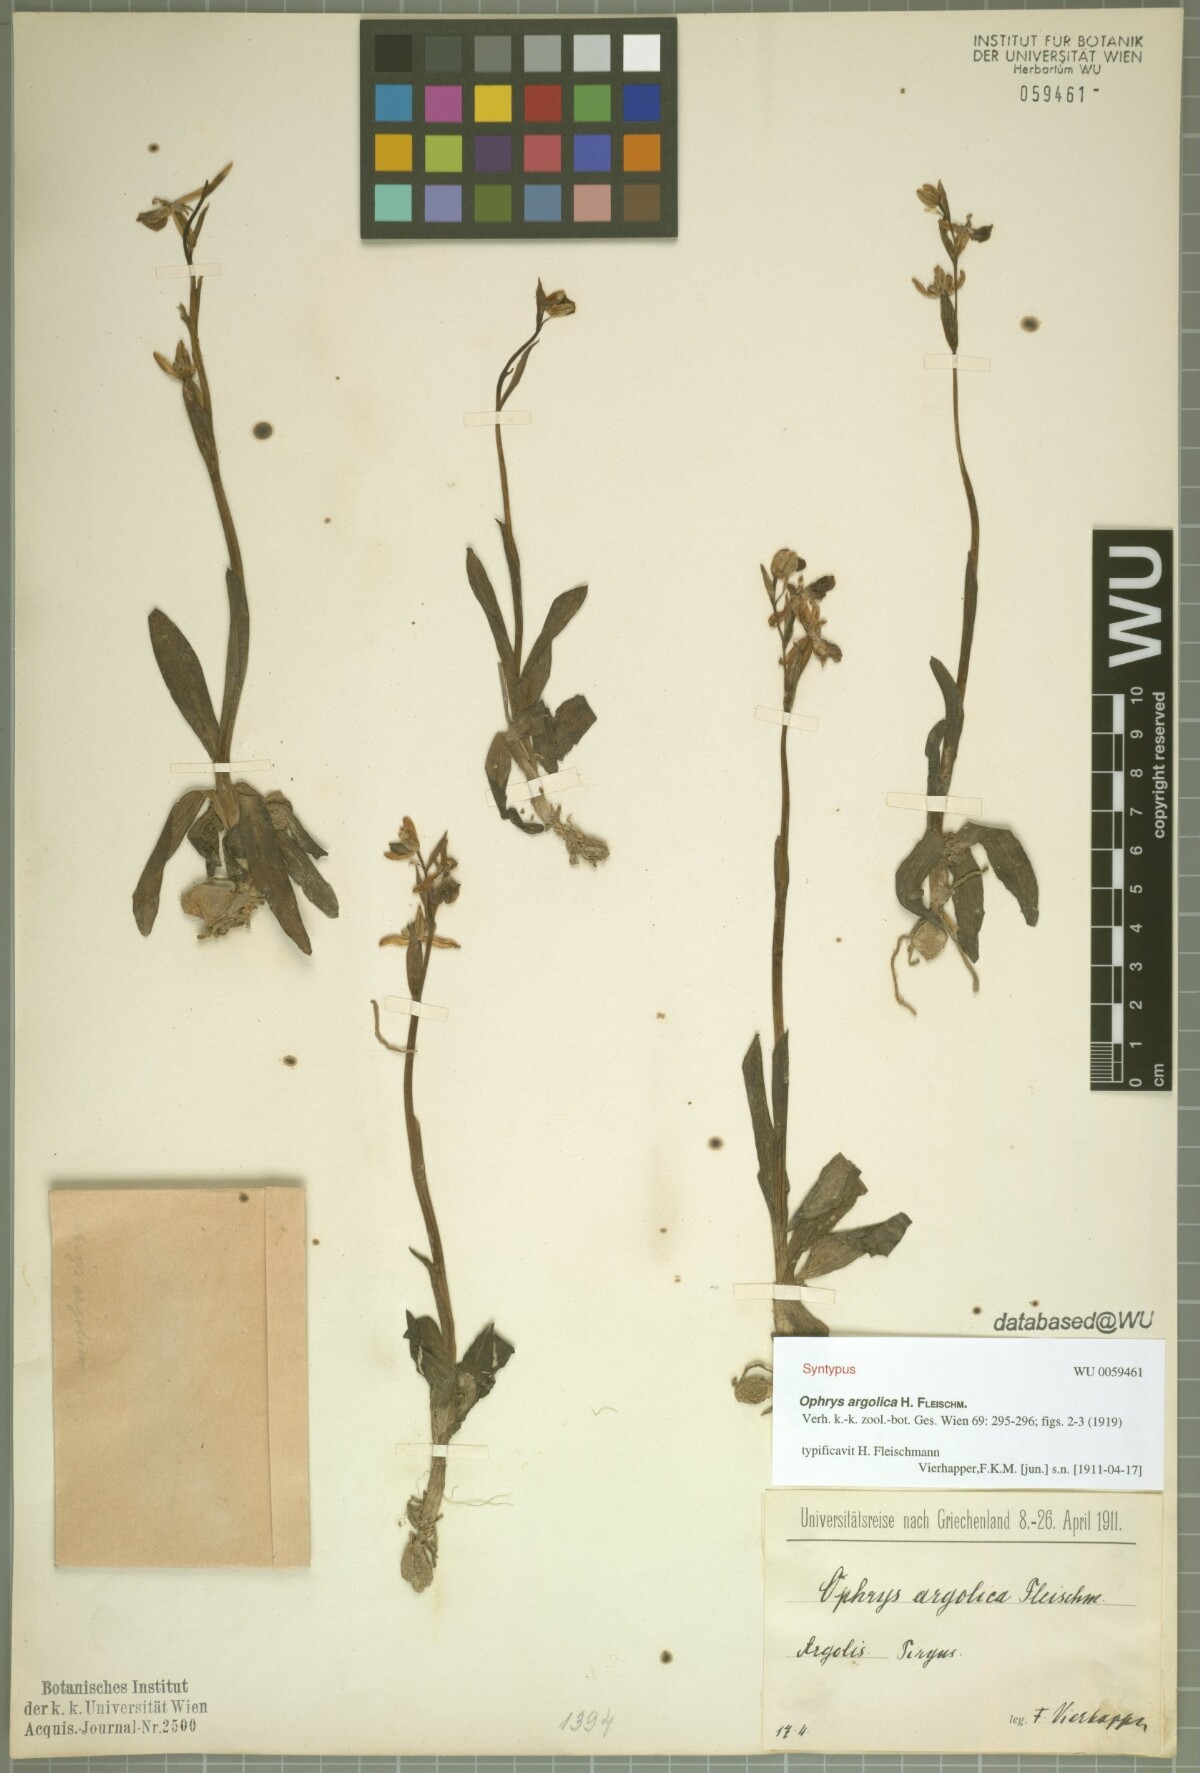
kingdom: Plantae
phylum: Tracheophyta
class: Liliopsida
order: Asparagales
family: Orchidaceae
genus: Ophrys
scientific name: Ophrys argolica
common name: Argolic ophrys
